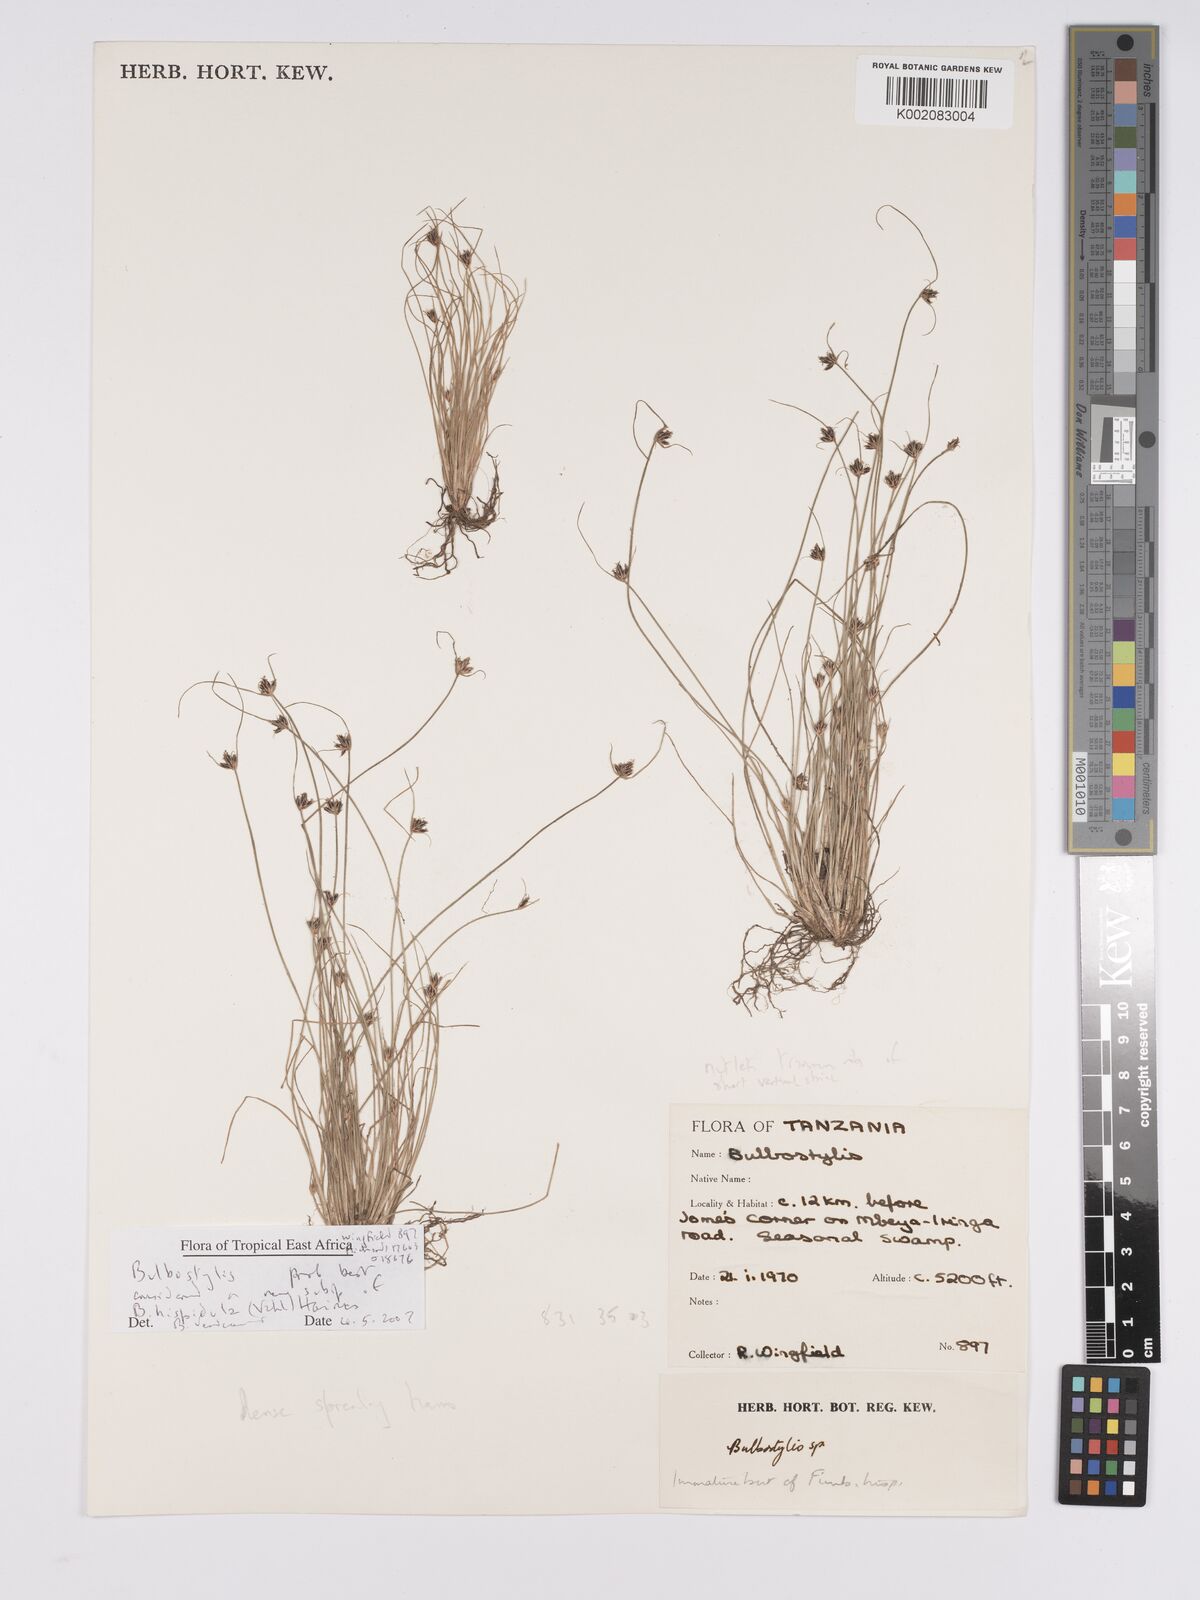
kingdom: Plantae
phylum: Tracheophyta
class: Liliopsida
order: Poales
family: Cyperaceae
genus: Bulbostylis
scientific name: Bulbostylis hispidula
